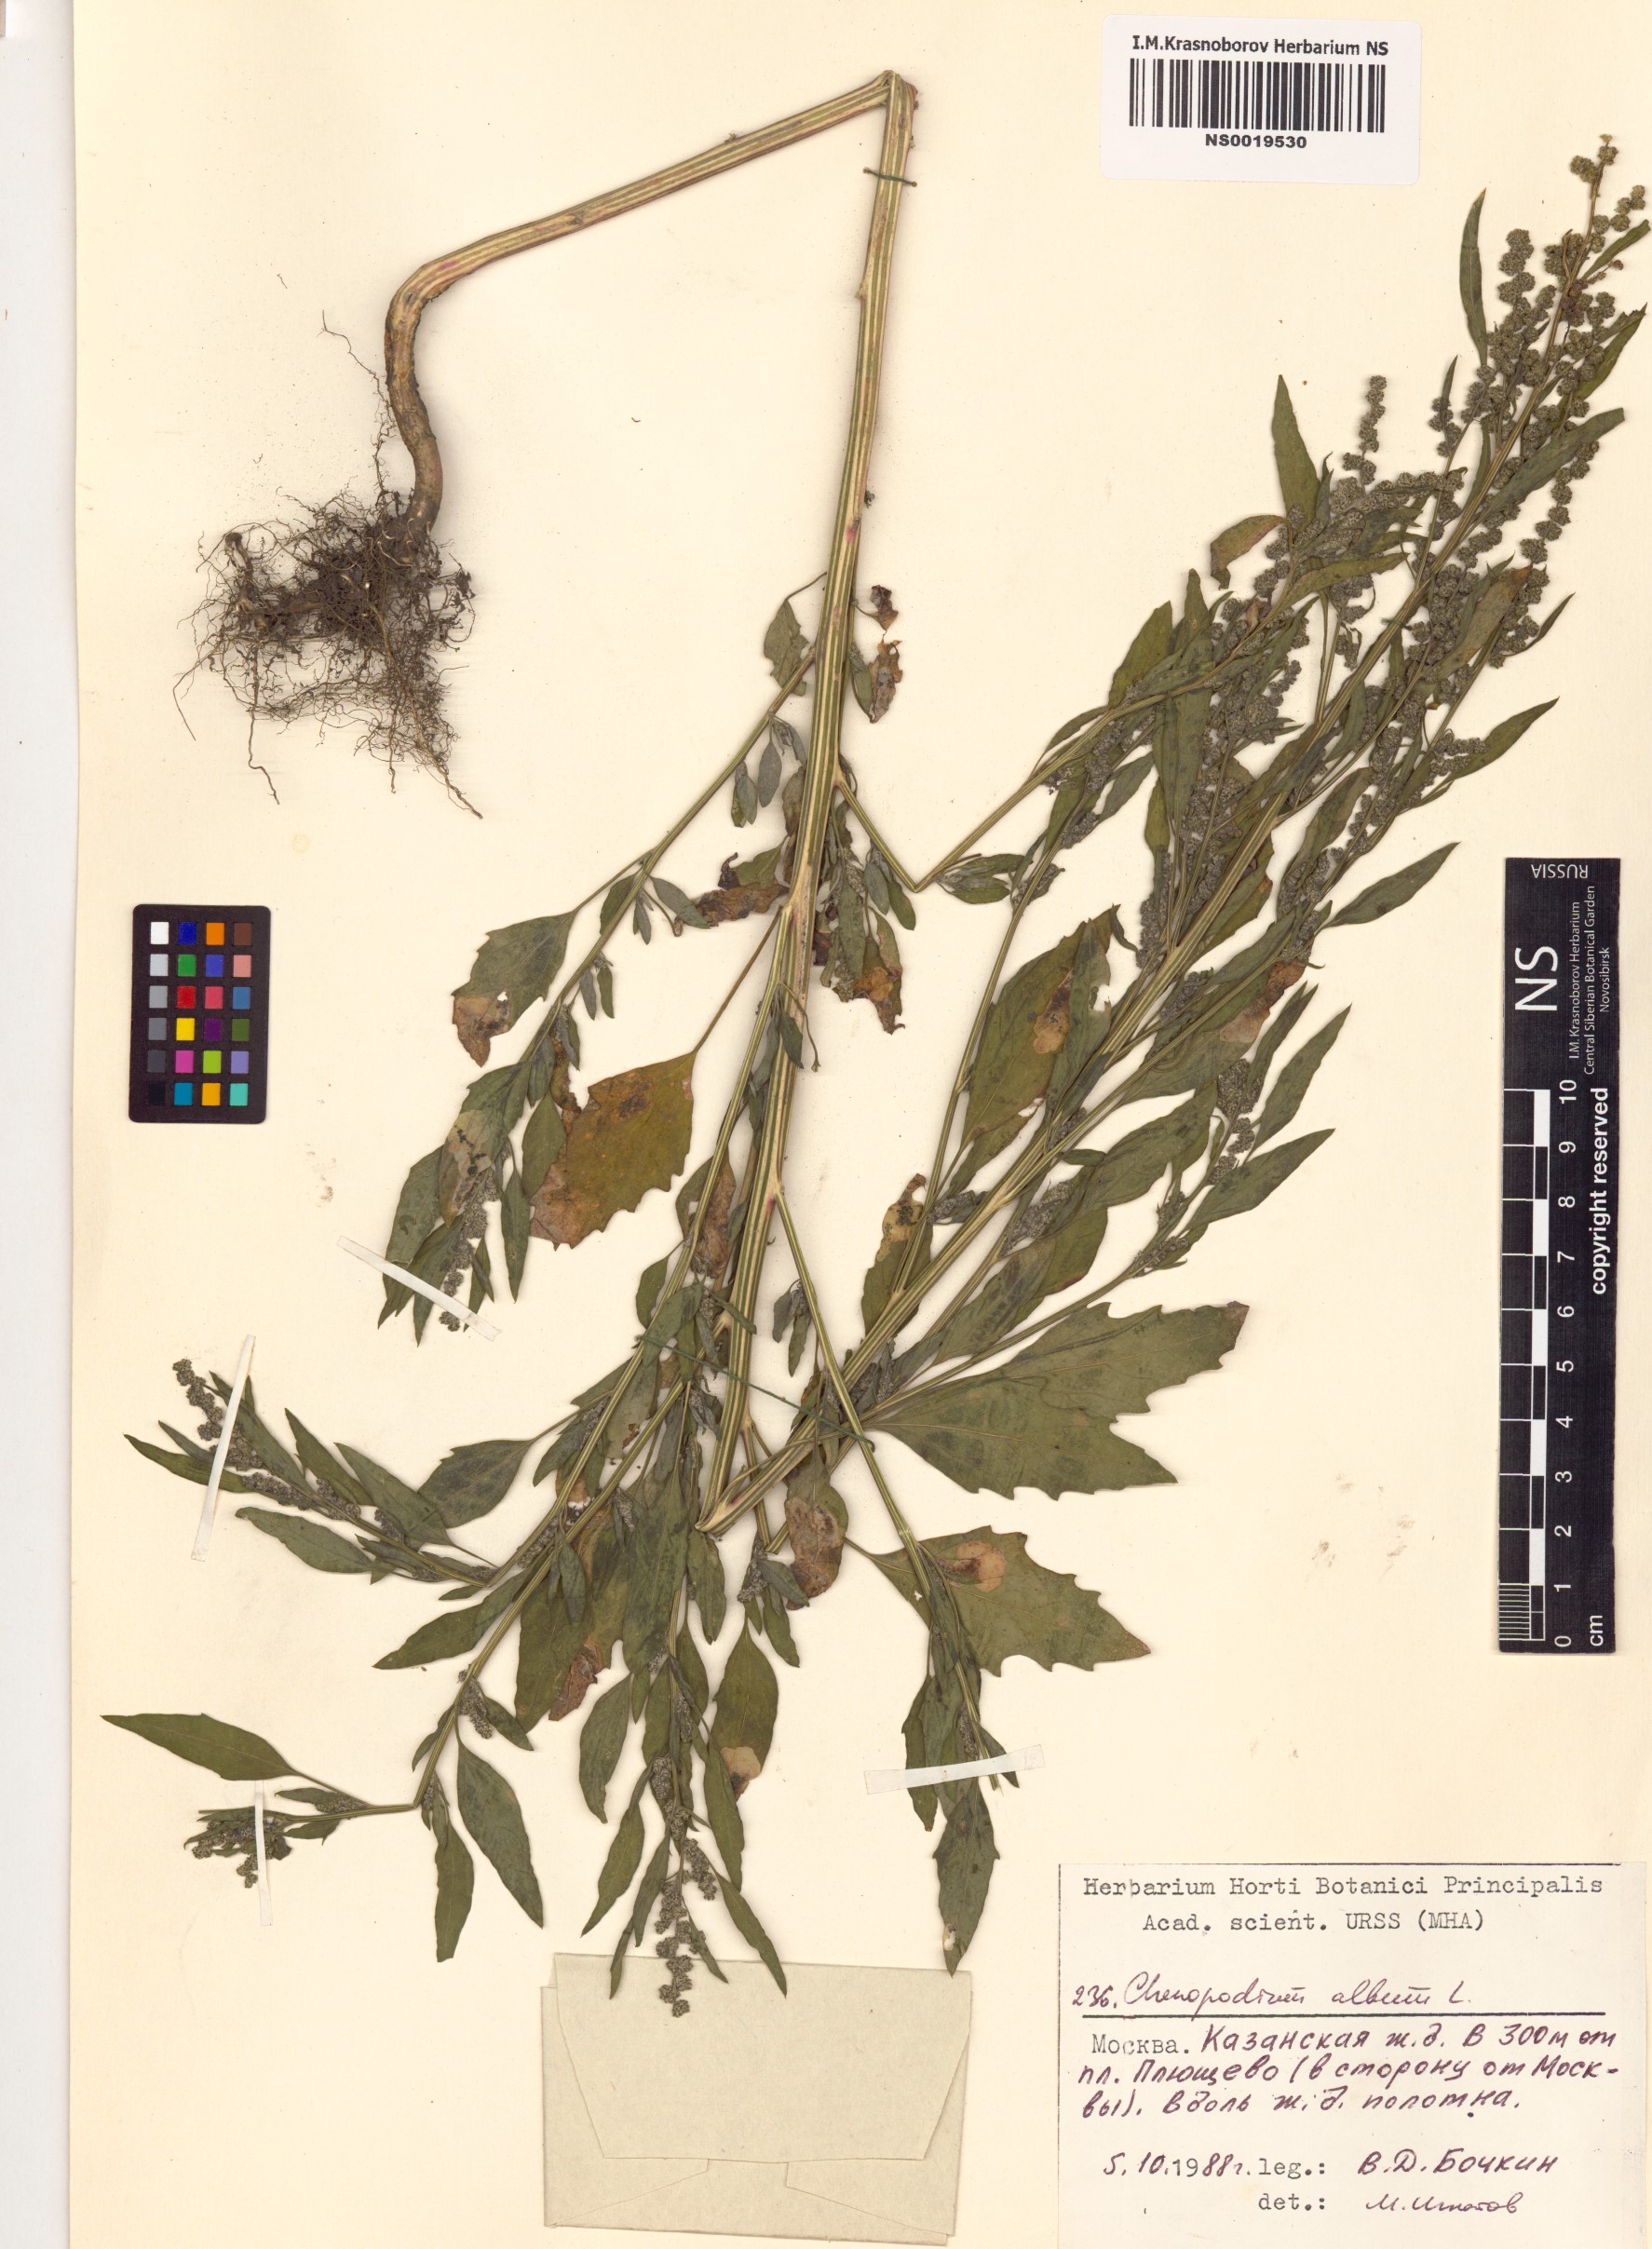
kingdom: Plantae
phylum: Tracheophyta
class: Magnoliopsida
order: Caryophyllales
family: Amaranthaceae
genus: Chenopodium
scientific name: Chenopodium album
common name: Fat-hen
